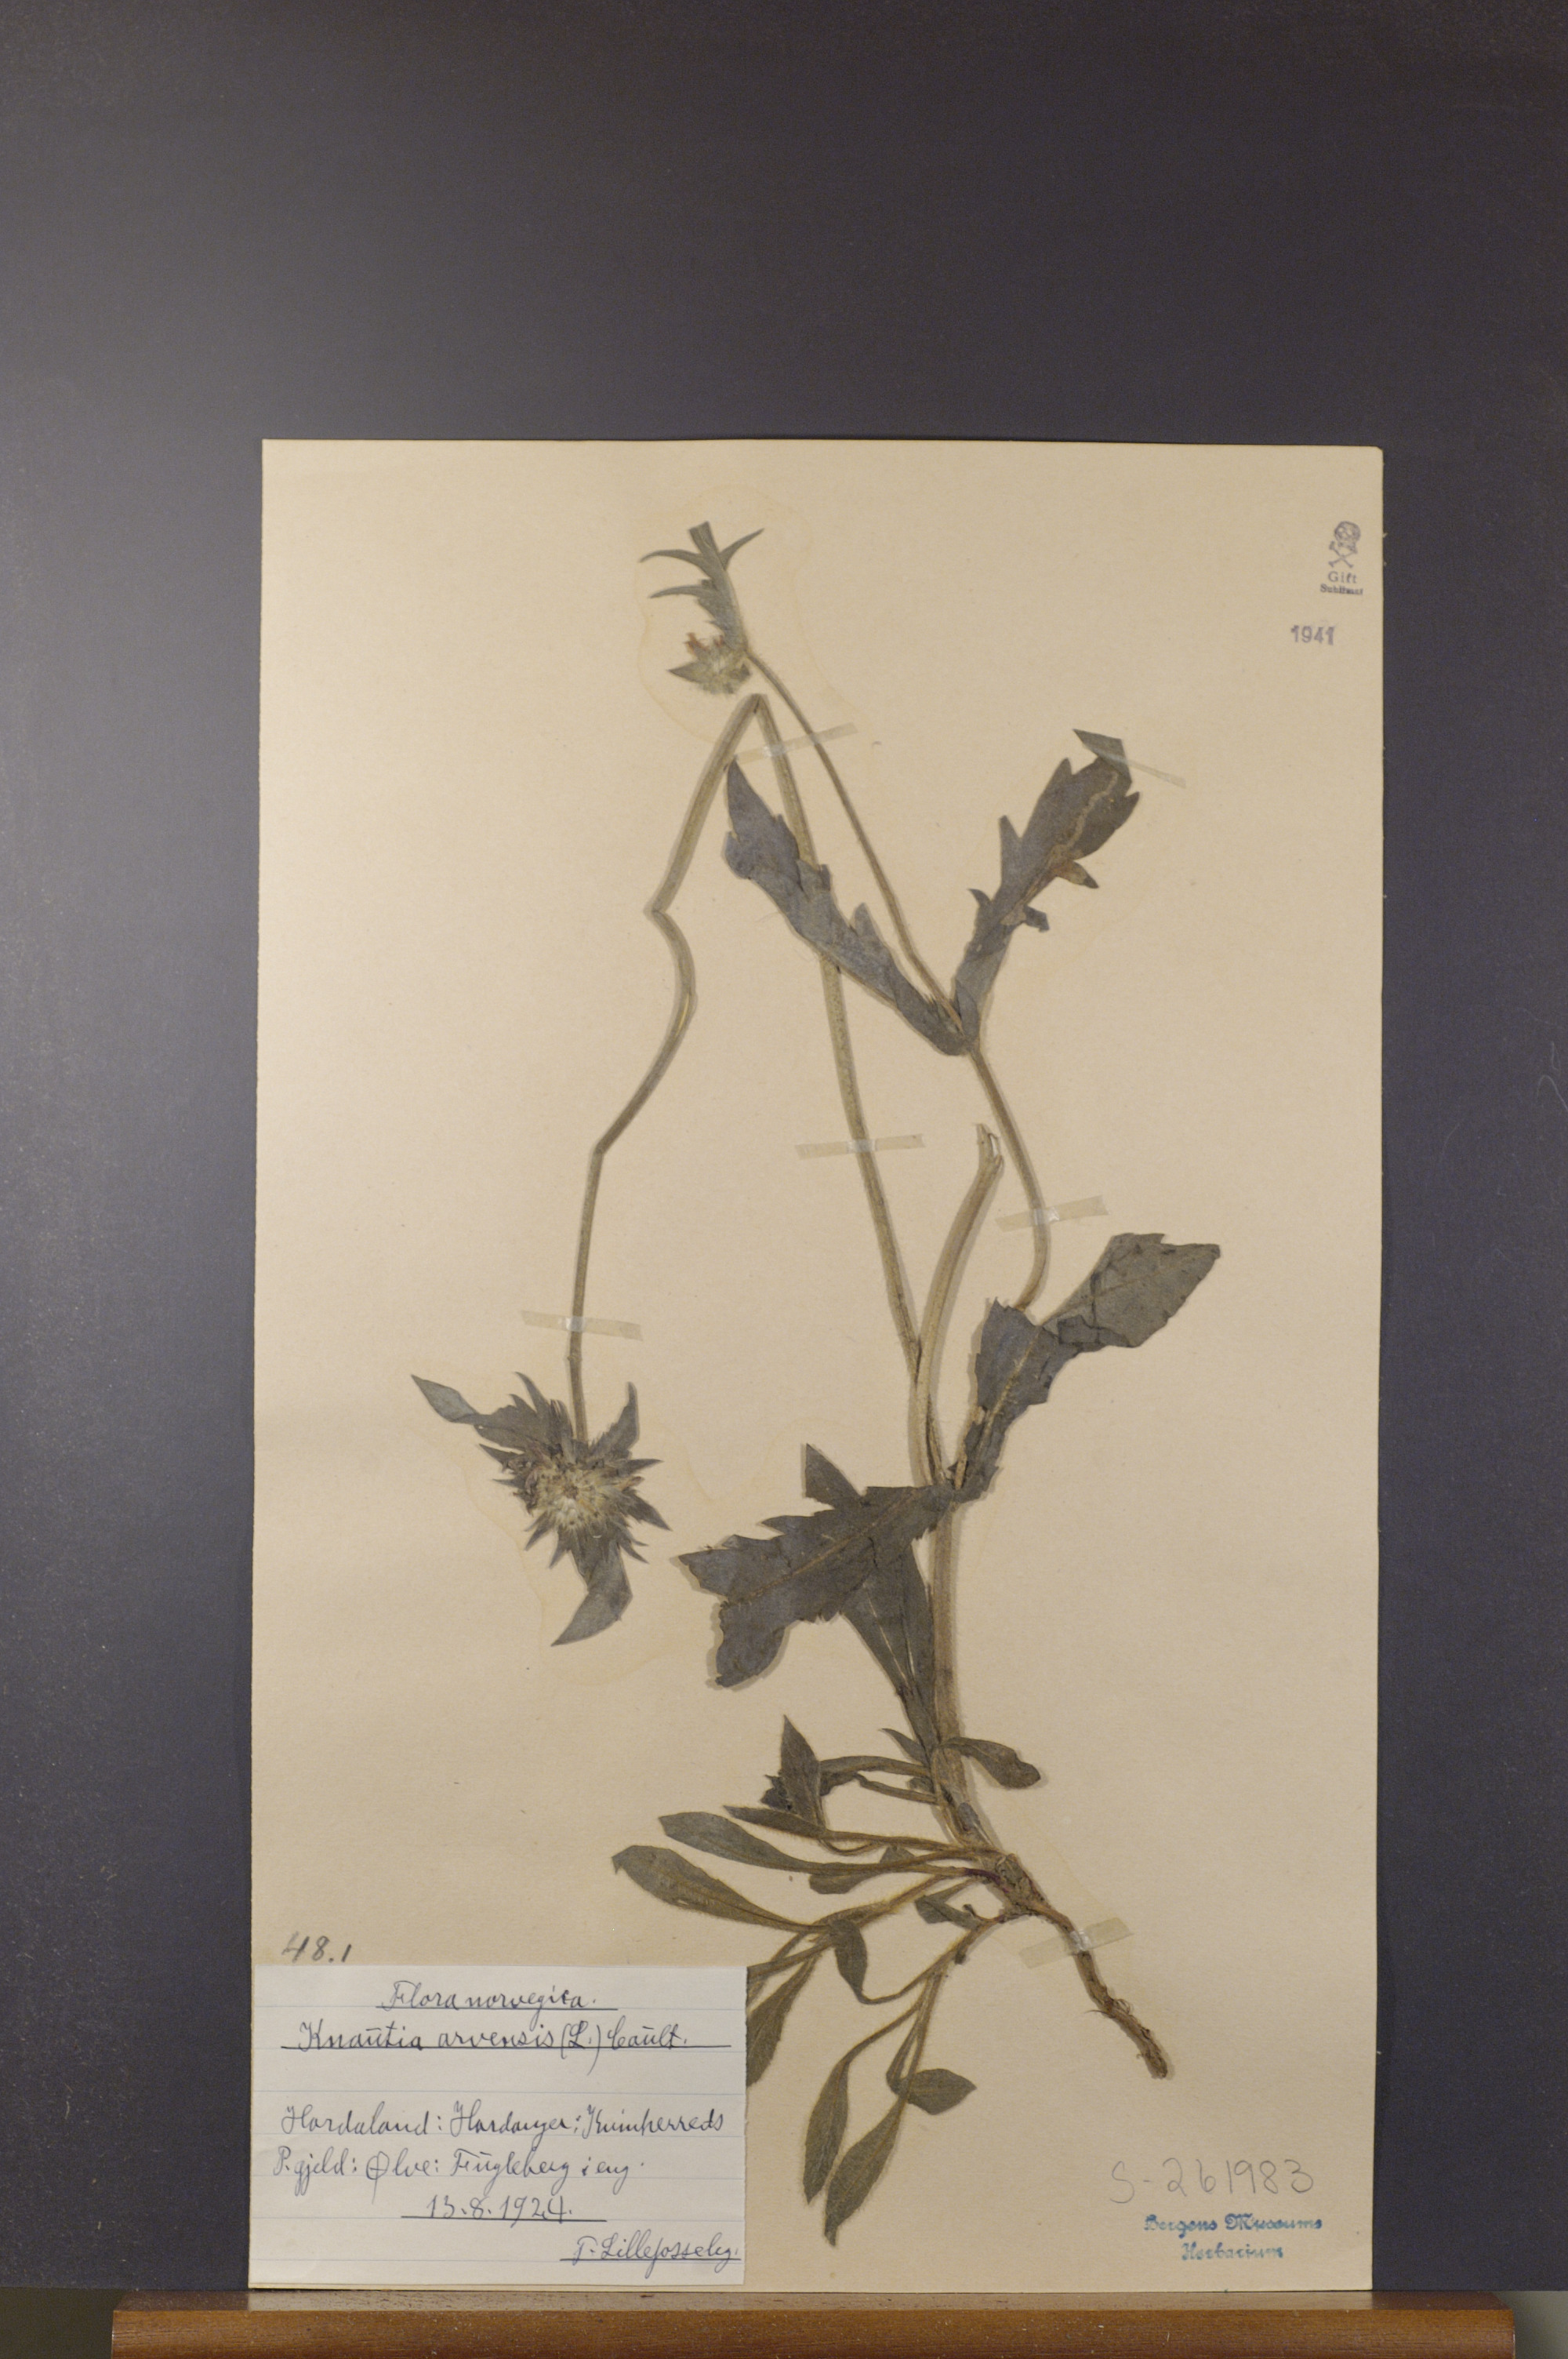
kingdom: Plantae
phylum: Tracheophyta
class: Magnoliopsida
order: Dipsacales
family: Caprifoliaceae
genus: Knautia
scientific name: Knautia arvensis
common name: Field scabiosa
